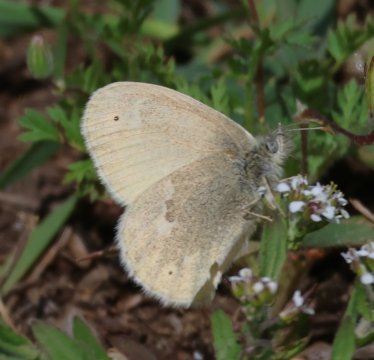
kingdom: Animalia
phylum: Arthropoda
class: Insecta
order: Lepidoptera
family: Nymphalidae
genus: Coenonympha
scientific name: Coenonympha tullia
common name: Large Heath
